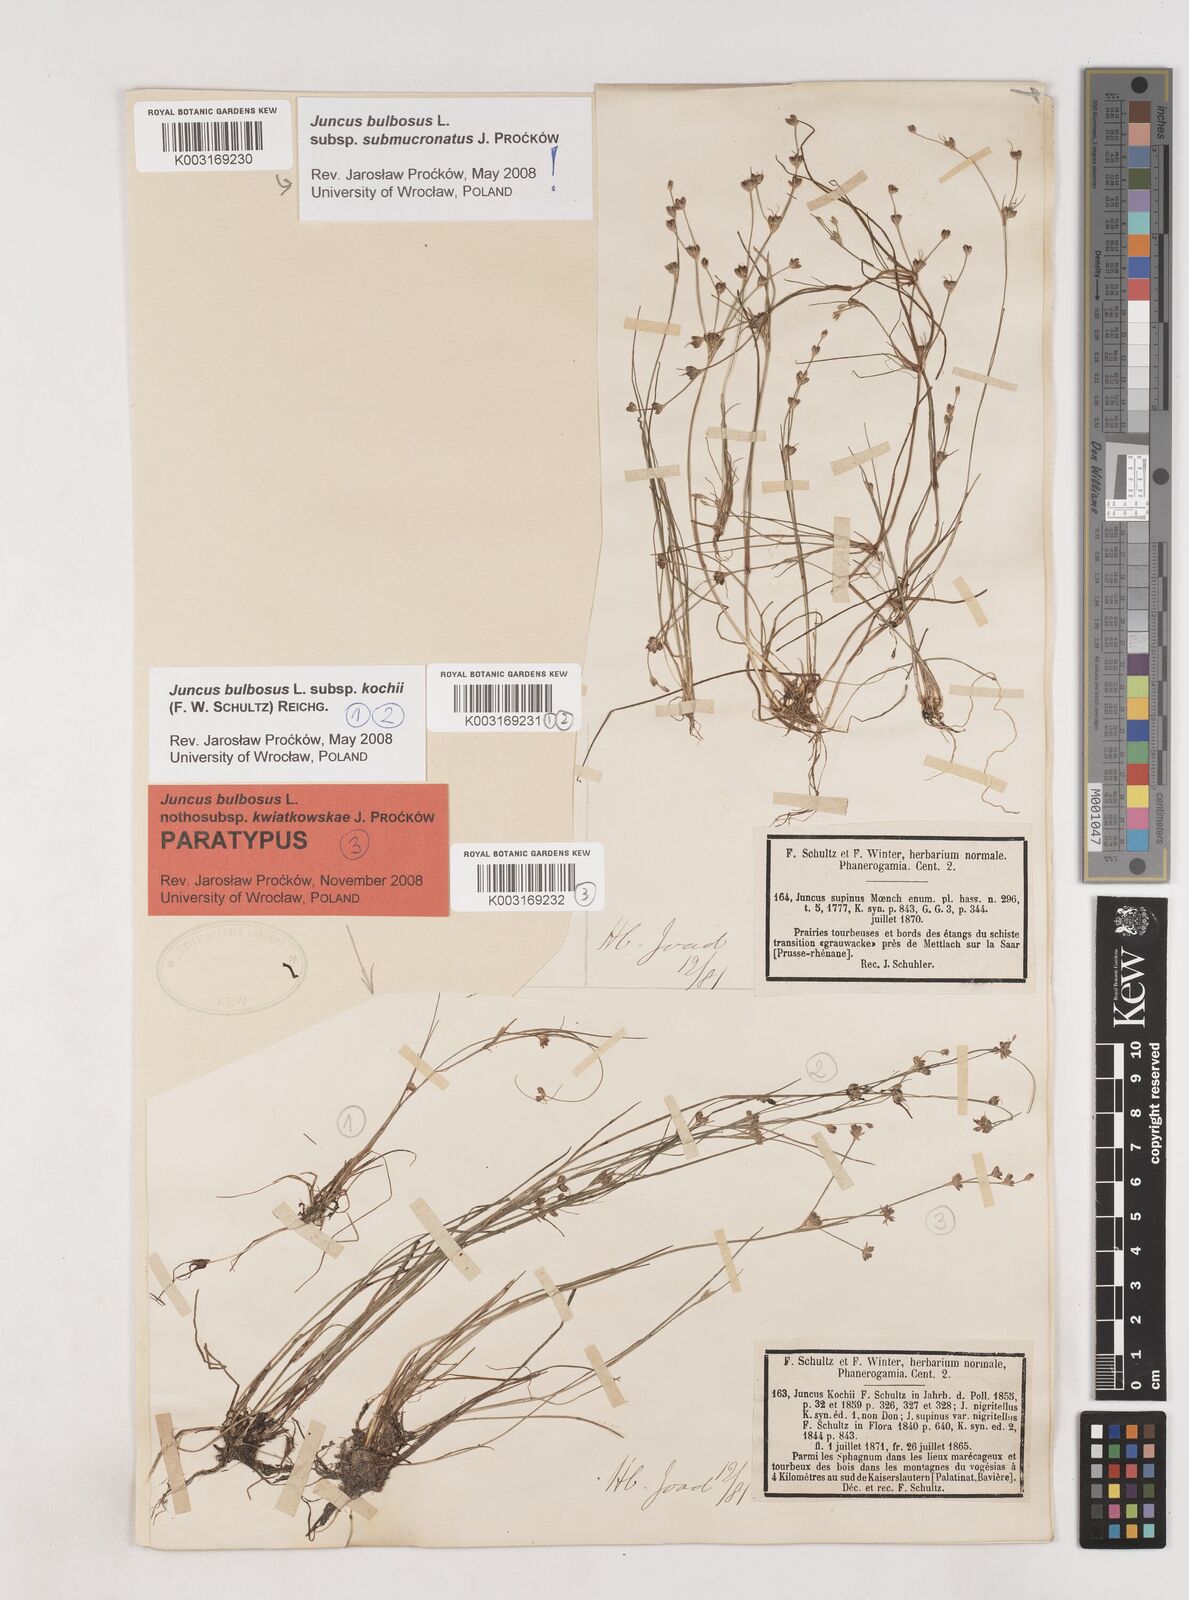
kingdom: Plantae
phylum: Tracheophyta
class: Liliopsida
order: Poales
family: Juncaceae
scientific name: Juncaceae
